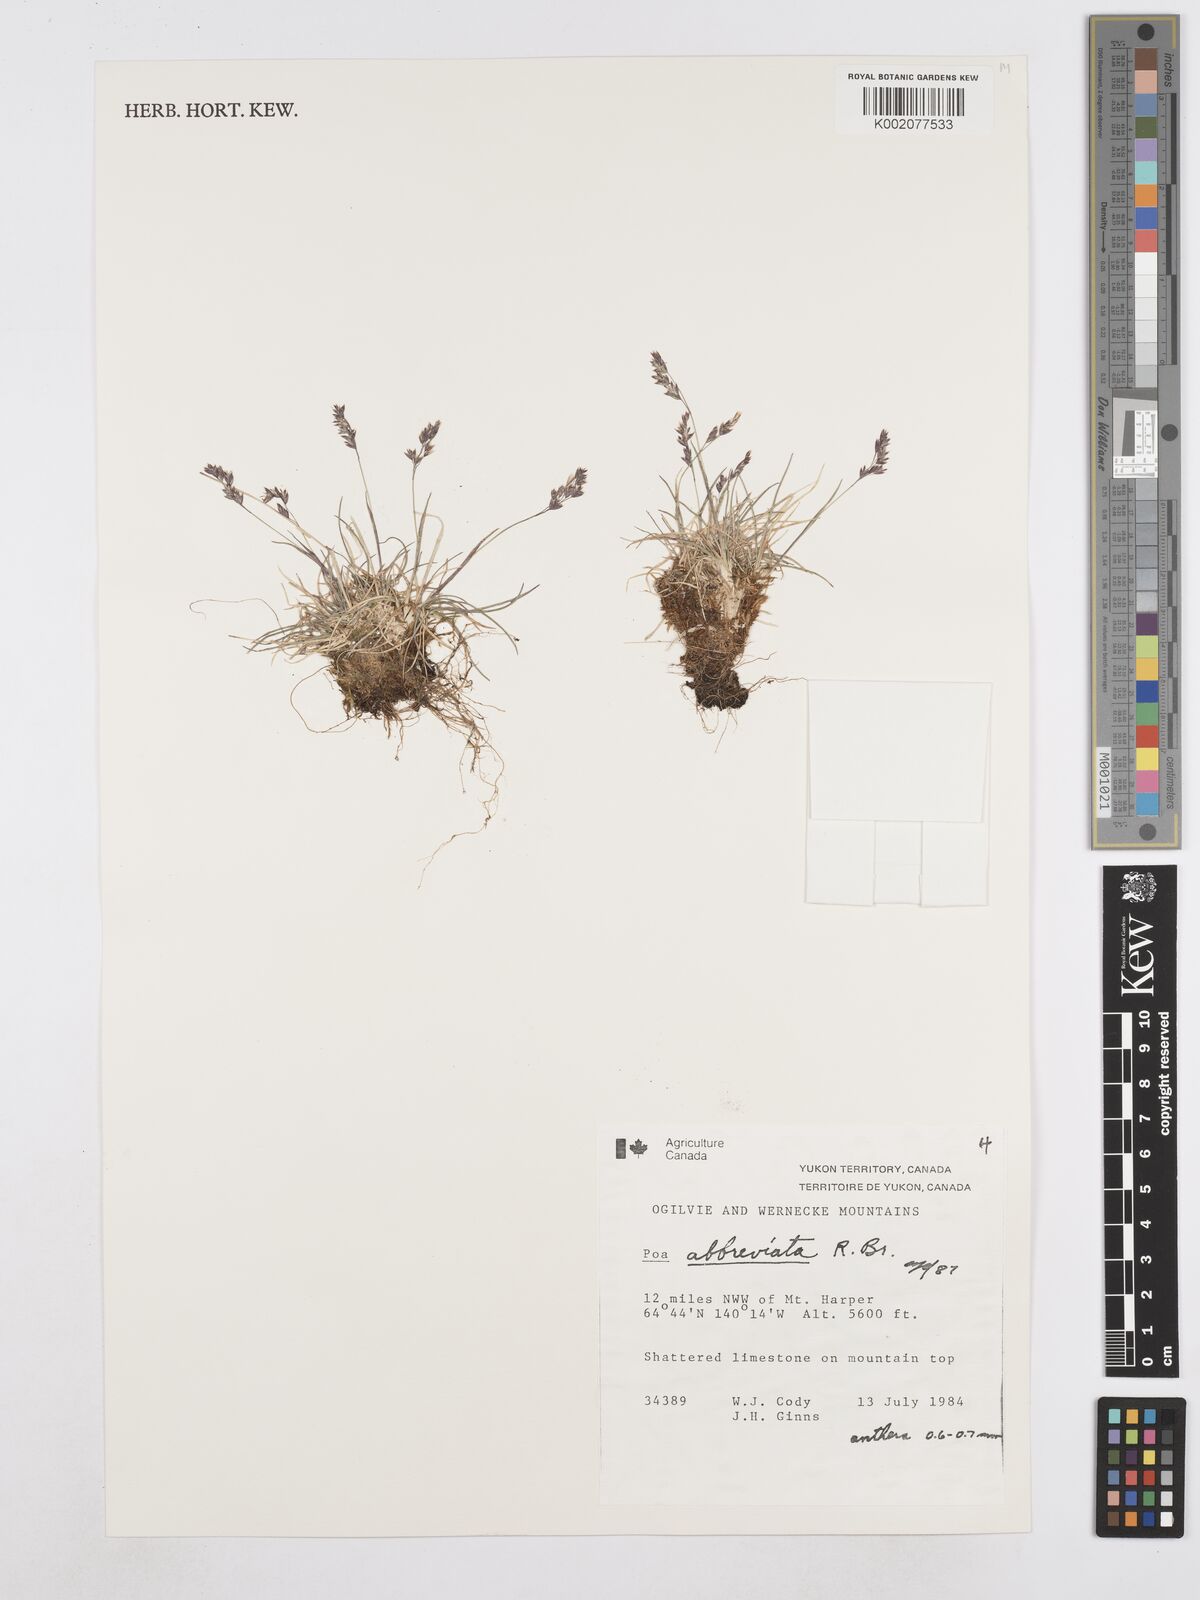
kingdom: Plantae
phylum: Tracheophyta
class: Liliopsida
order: Poales
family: Poaceae
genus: Poa
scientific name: Poa abbreviata
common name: Abbreviated bluegrass
